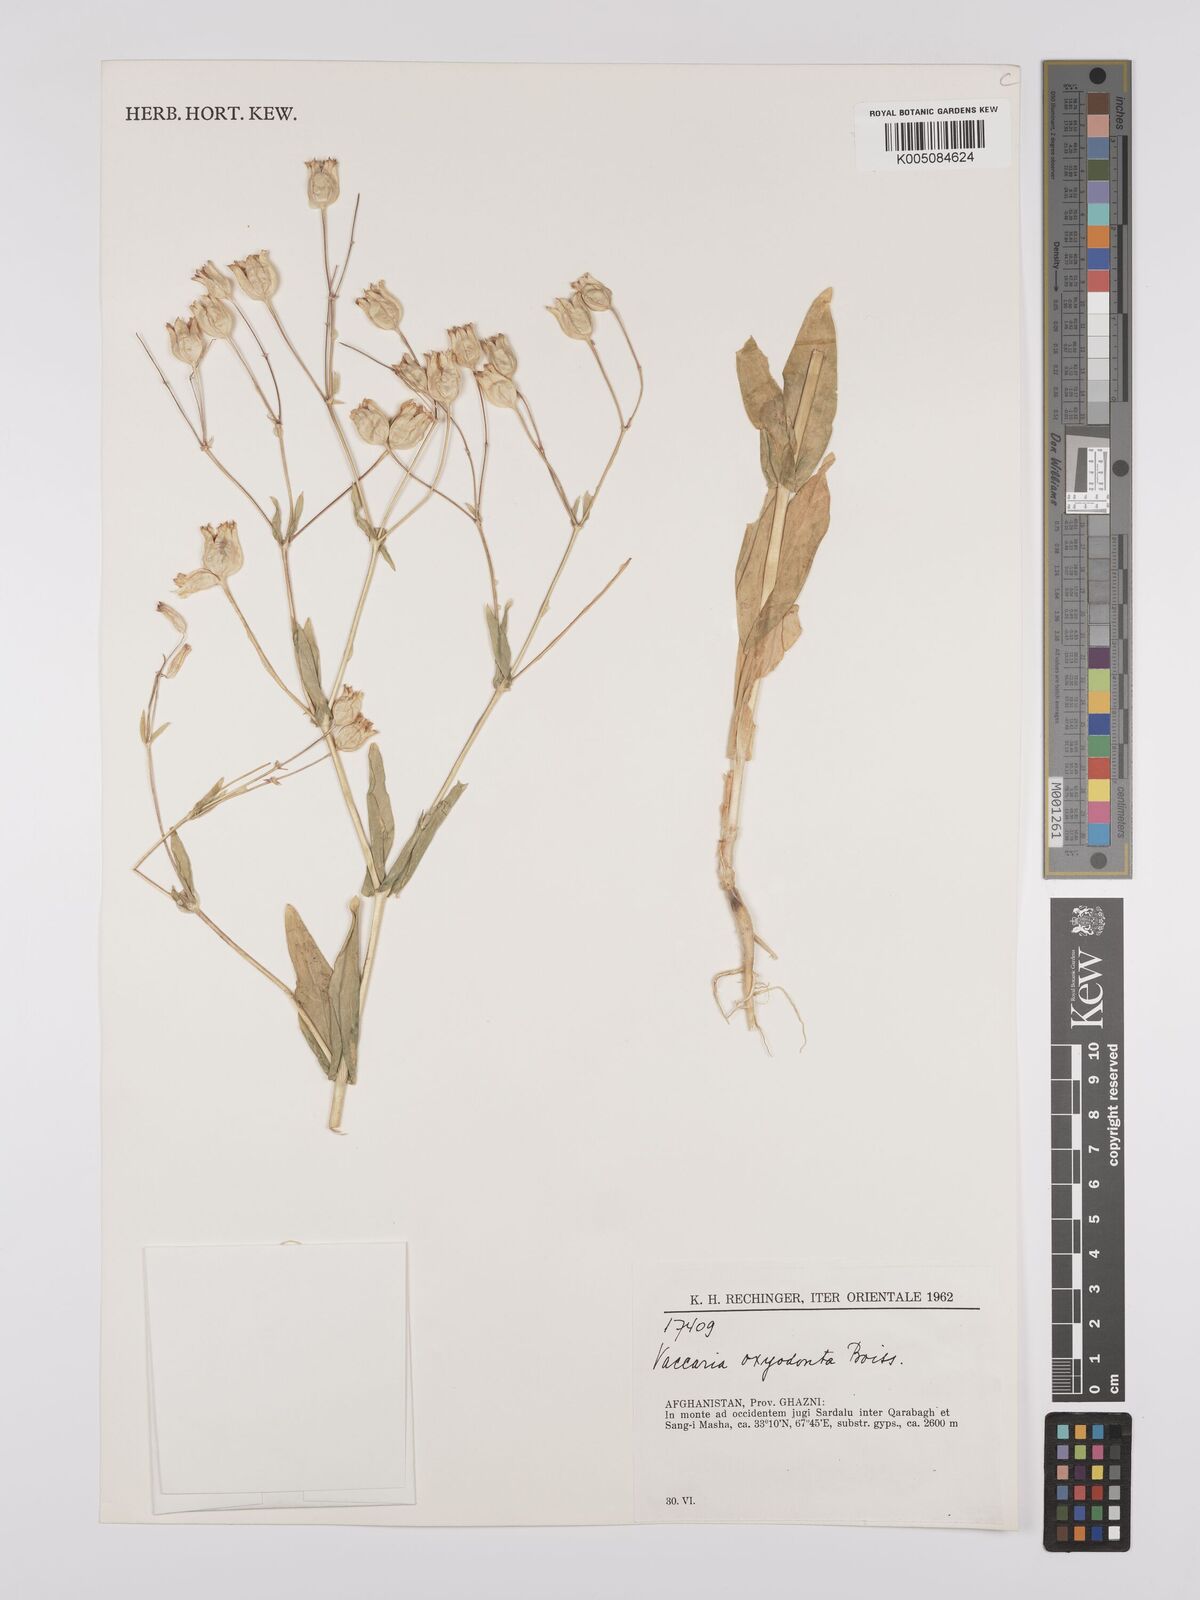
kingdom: Plantae
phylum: Tracheophyta
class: Magnoliopsida
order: Caryophyllales
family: Caryophyllaceae
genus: Gypsophila
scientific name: Gypsophila vaccaria
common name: Cow soapwort
